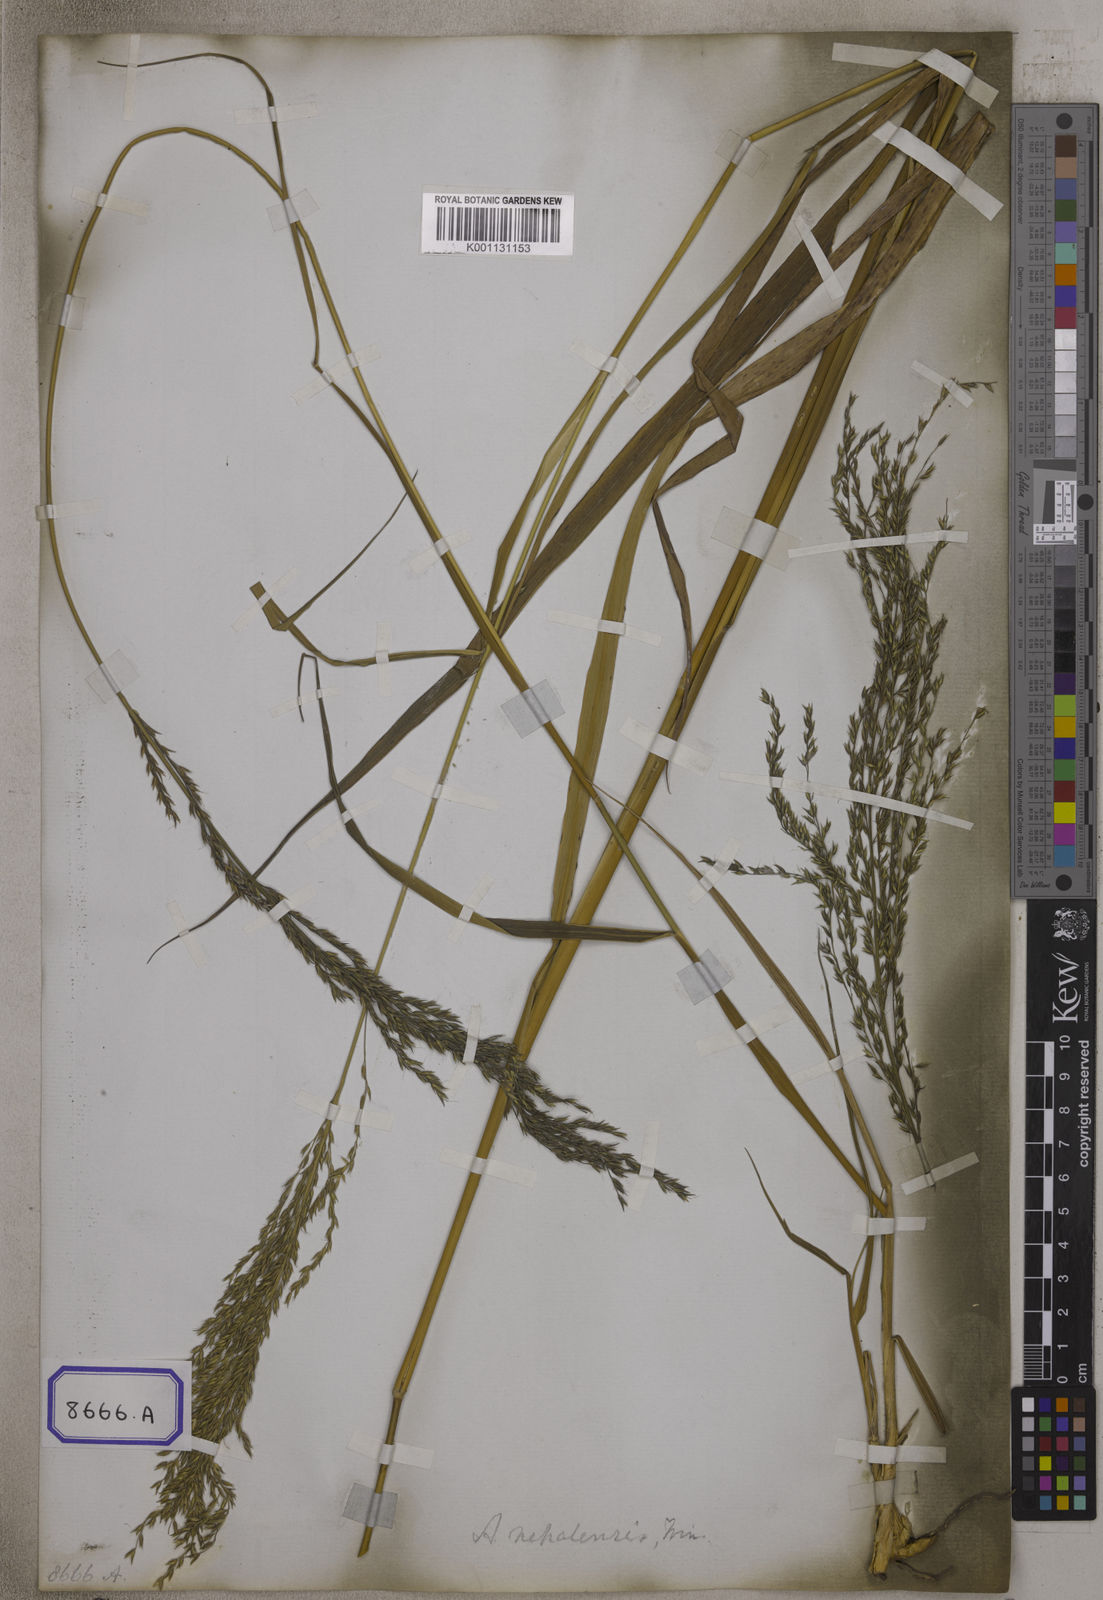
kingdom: Plantae
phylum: Tracheophyta
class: Liliopsida
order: Poales
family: Poaceae
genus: Arundinella
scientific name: Arundinella
